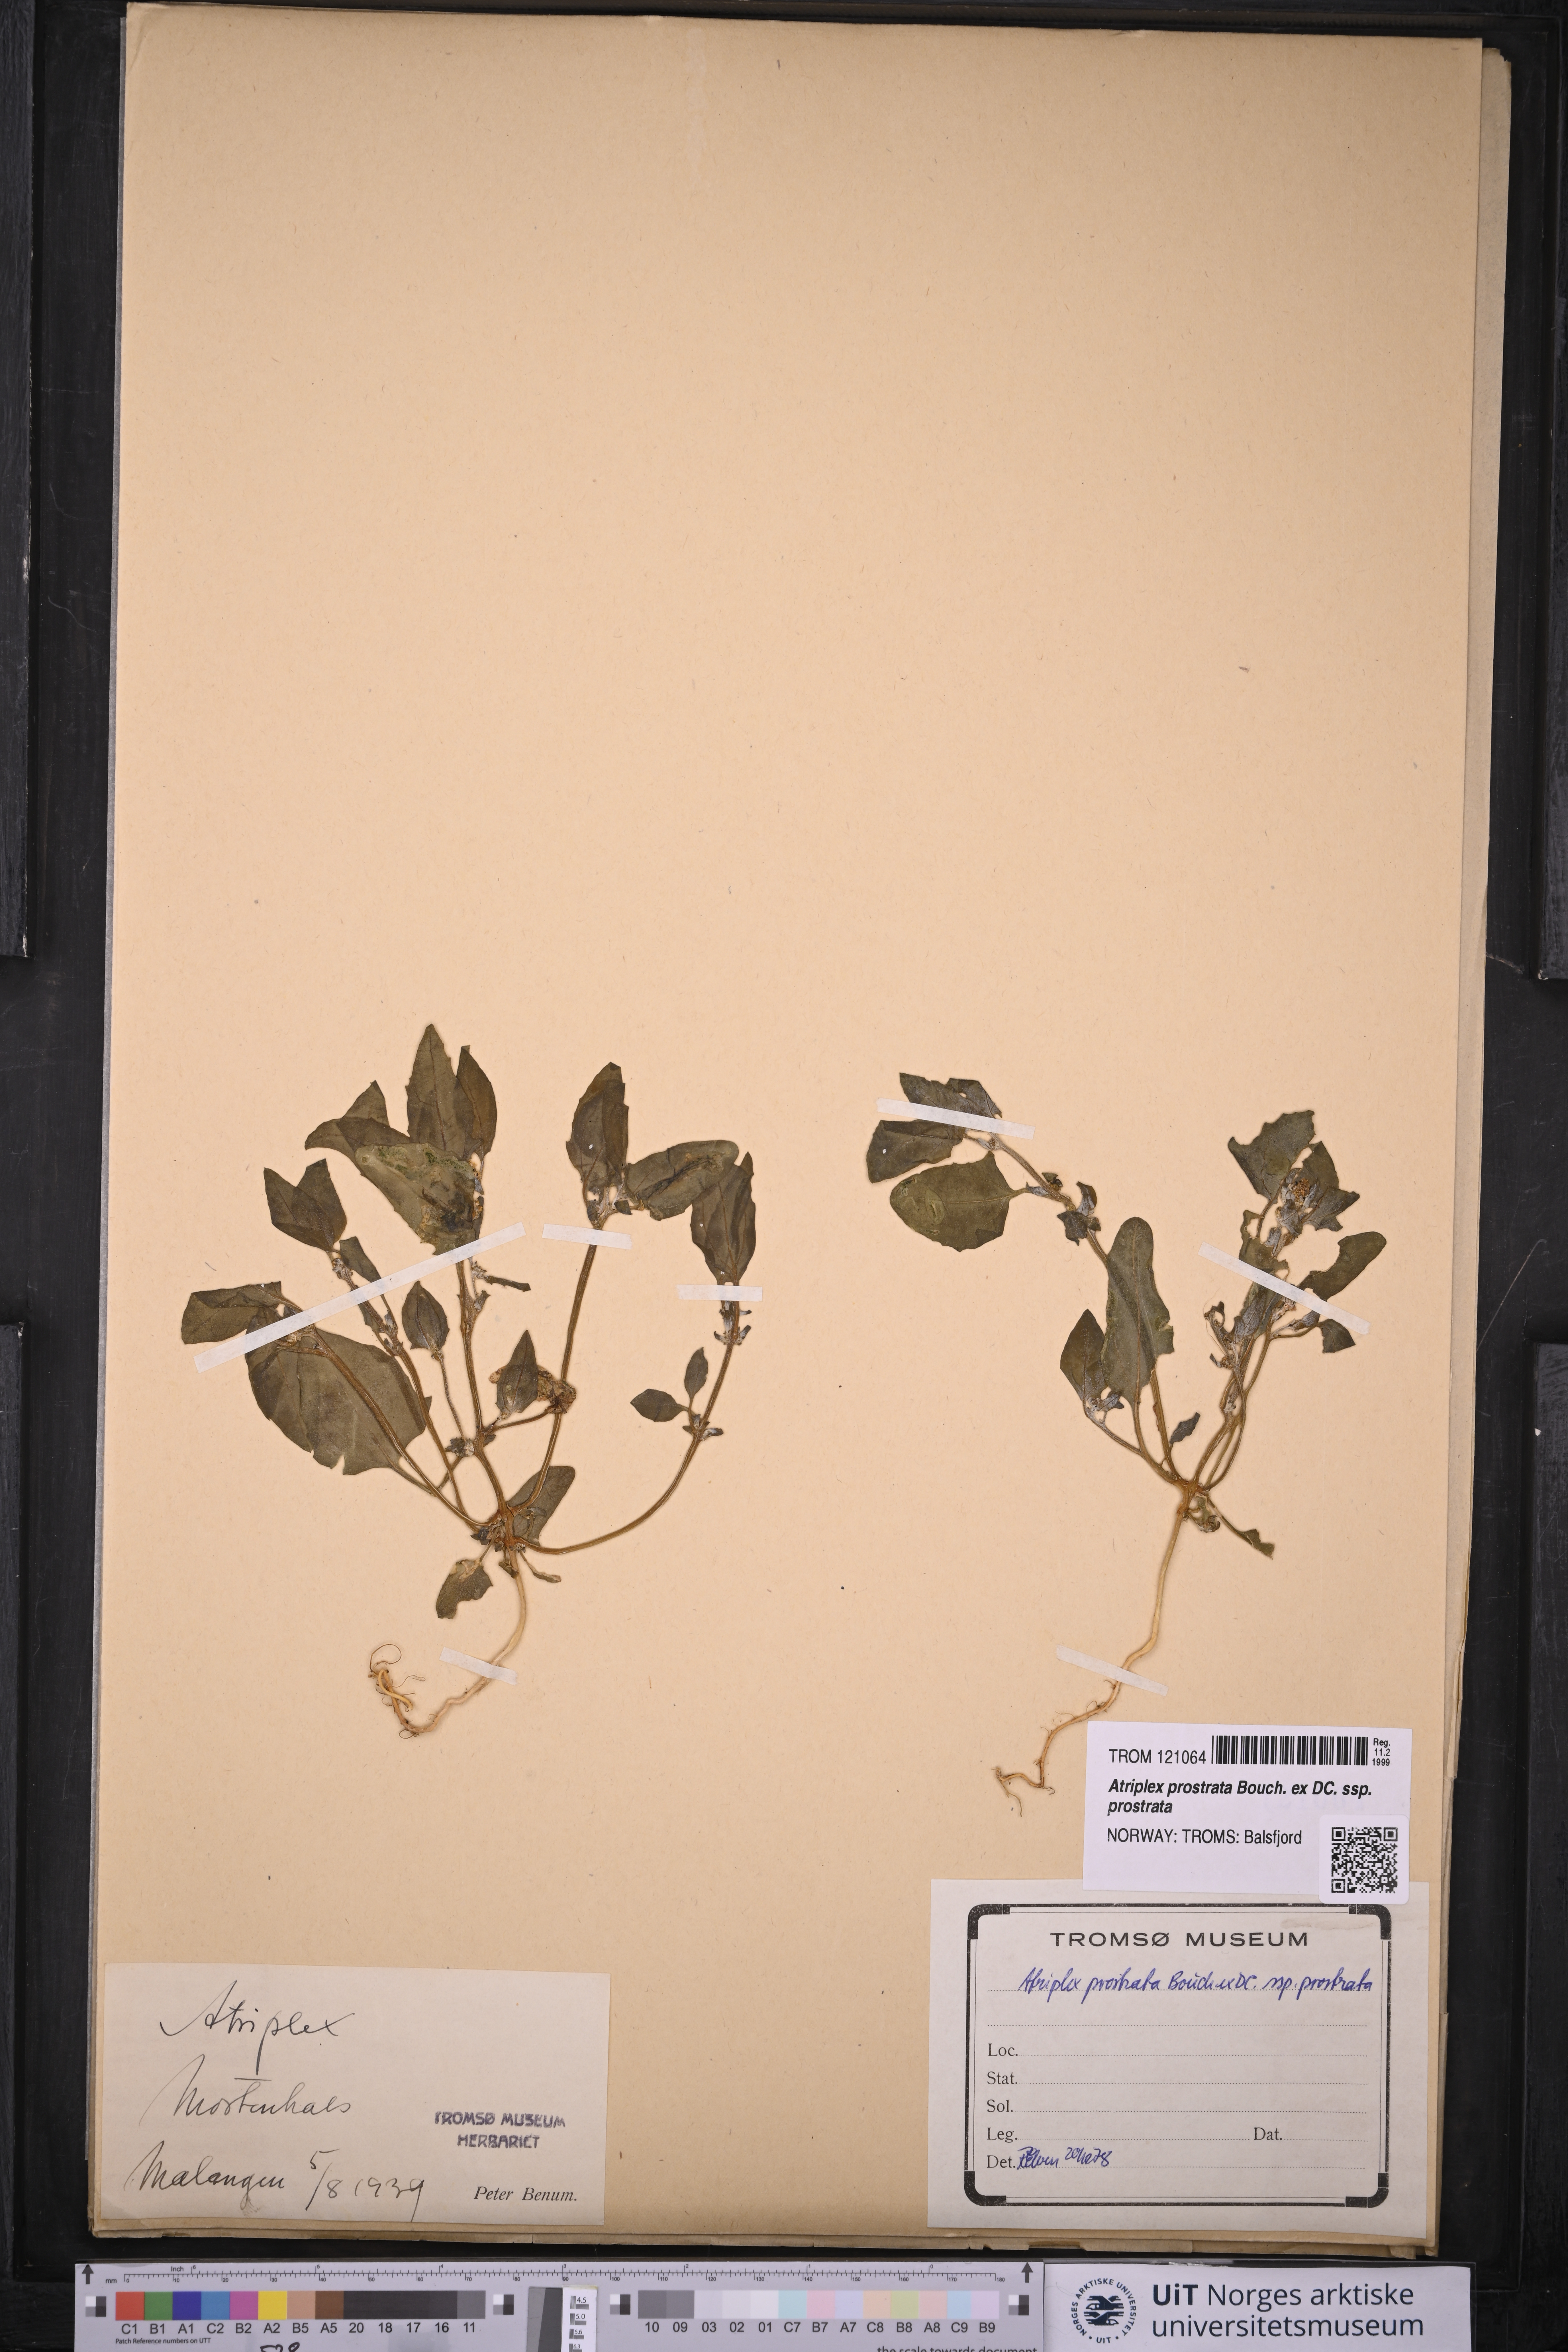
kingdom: Plantae
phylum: Tracheophyta
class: Magnoliopsida
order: Caryophyllales
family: Amaranthaceae
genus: Atriplex
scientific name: Atriplex prostrata
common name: Spear-leaved orache
